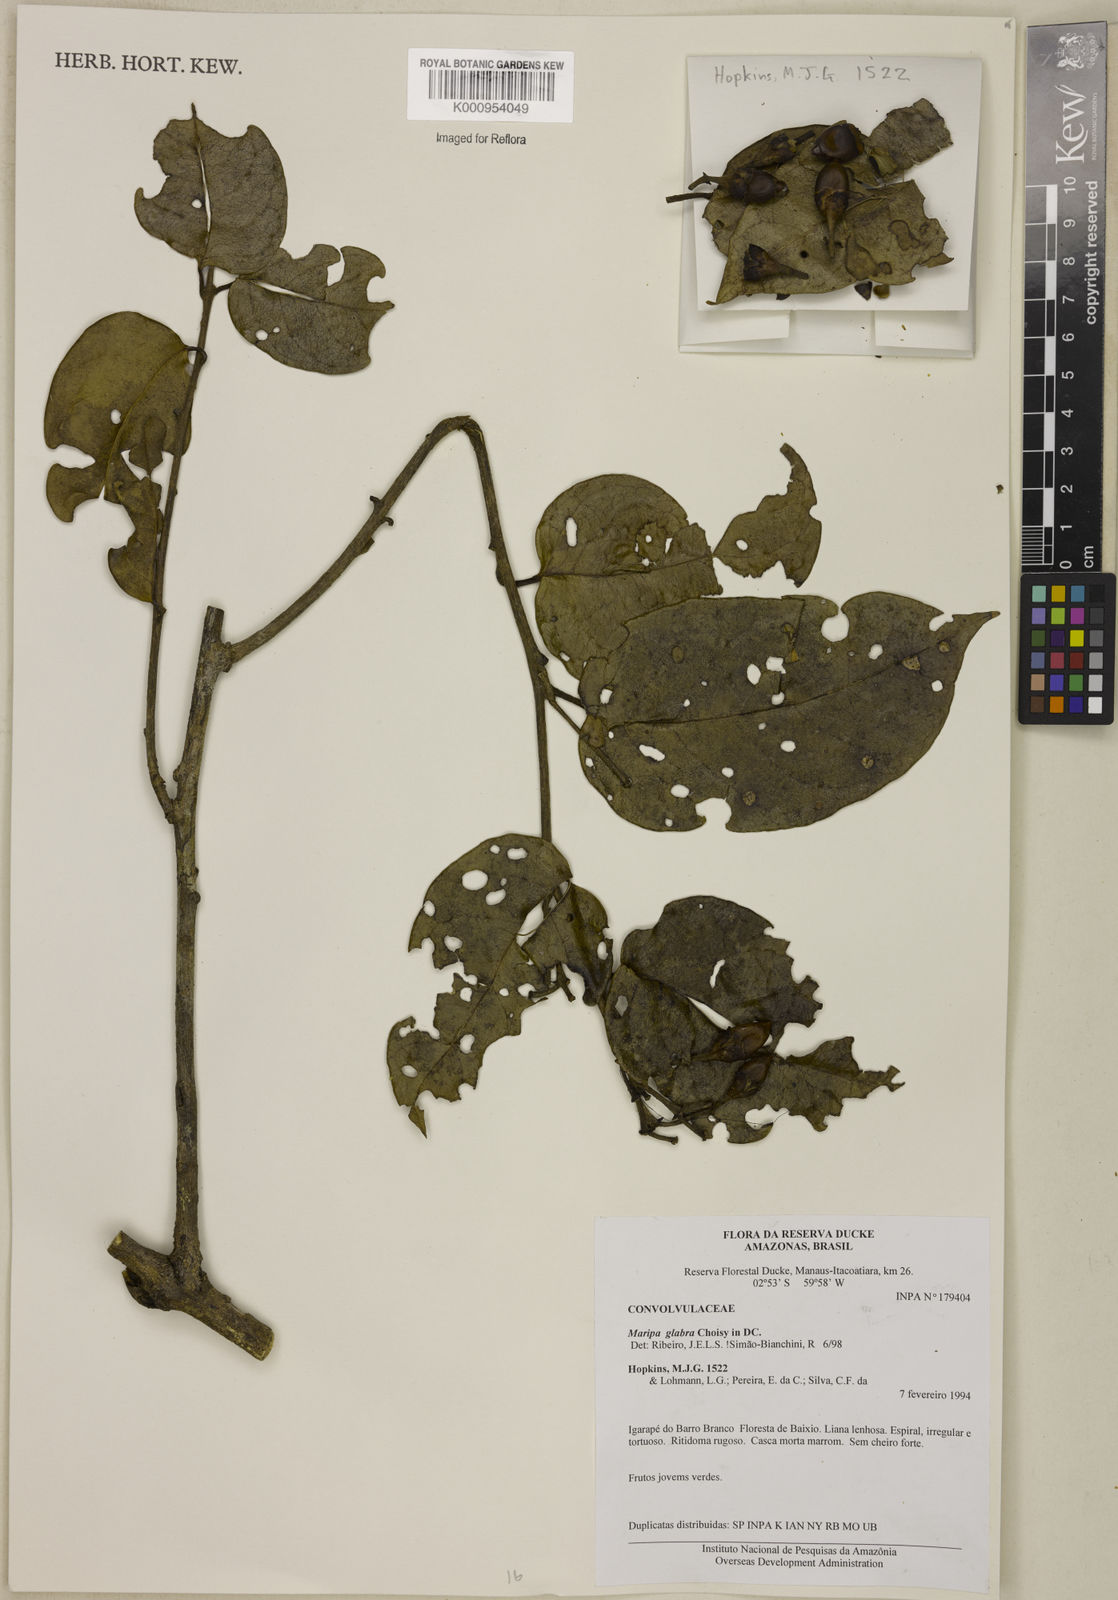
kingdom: Plantae
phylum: Tracheophyta
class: Magnoliopsida
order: Solanales
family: Convolvulaceae
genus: Maripa
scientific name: Maripa glabra
